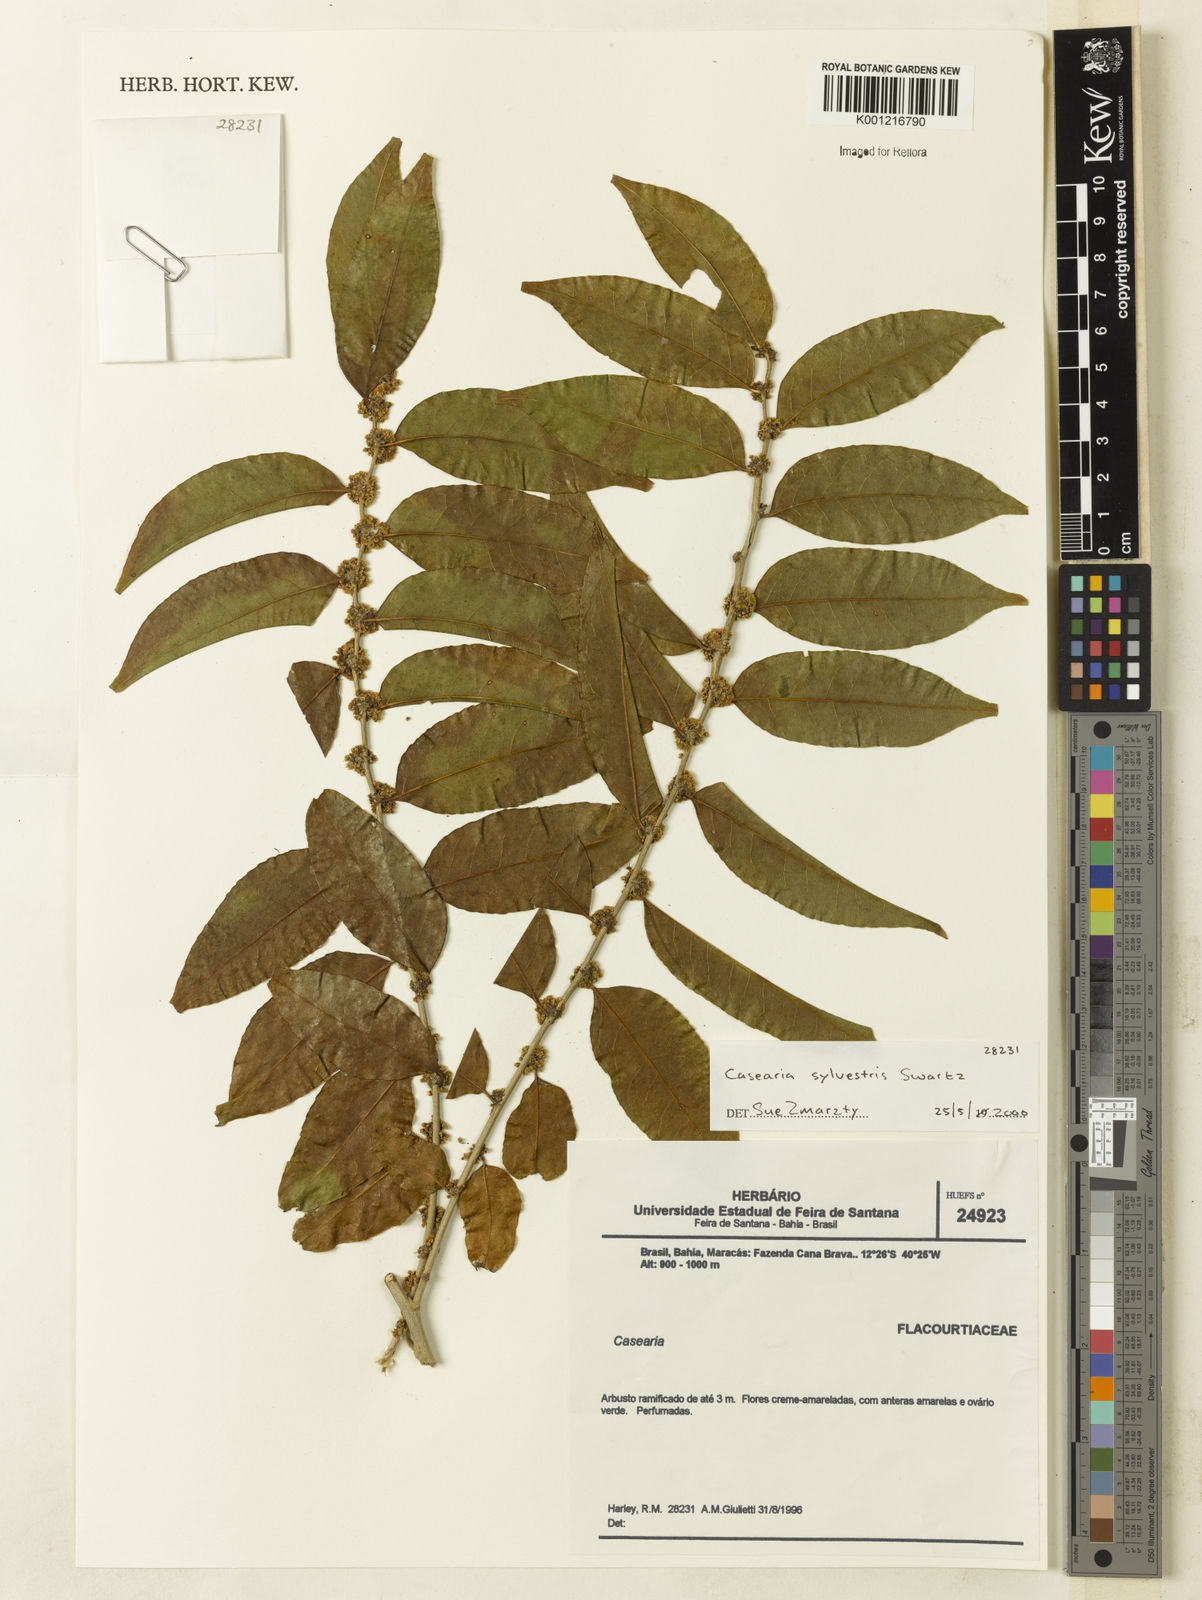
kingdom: Plantae
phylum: Tracheophyta
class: Magnoliopsida
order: Malpighiales
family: Salicaceae
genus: Casearia
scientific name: Casearia sylvestris
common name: Wild sage
